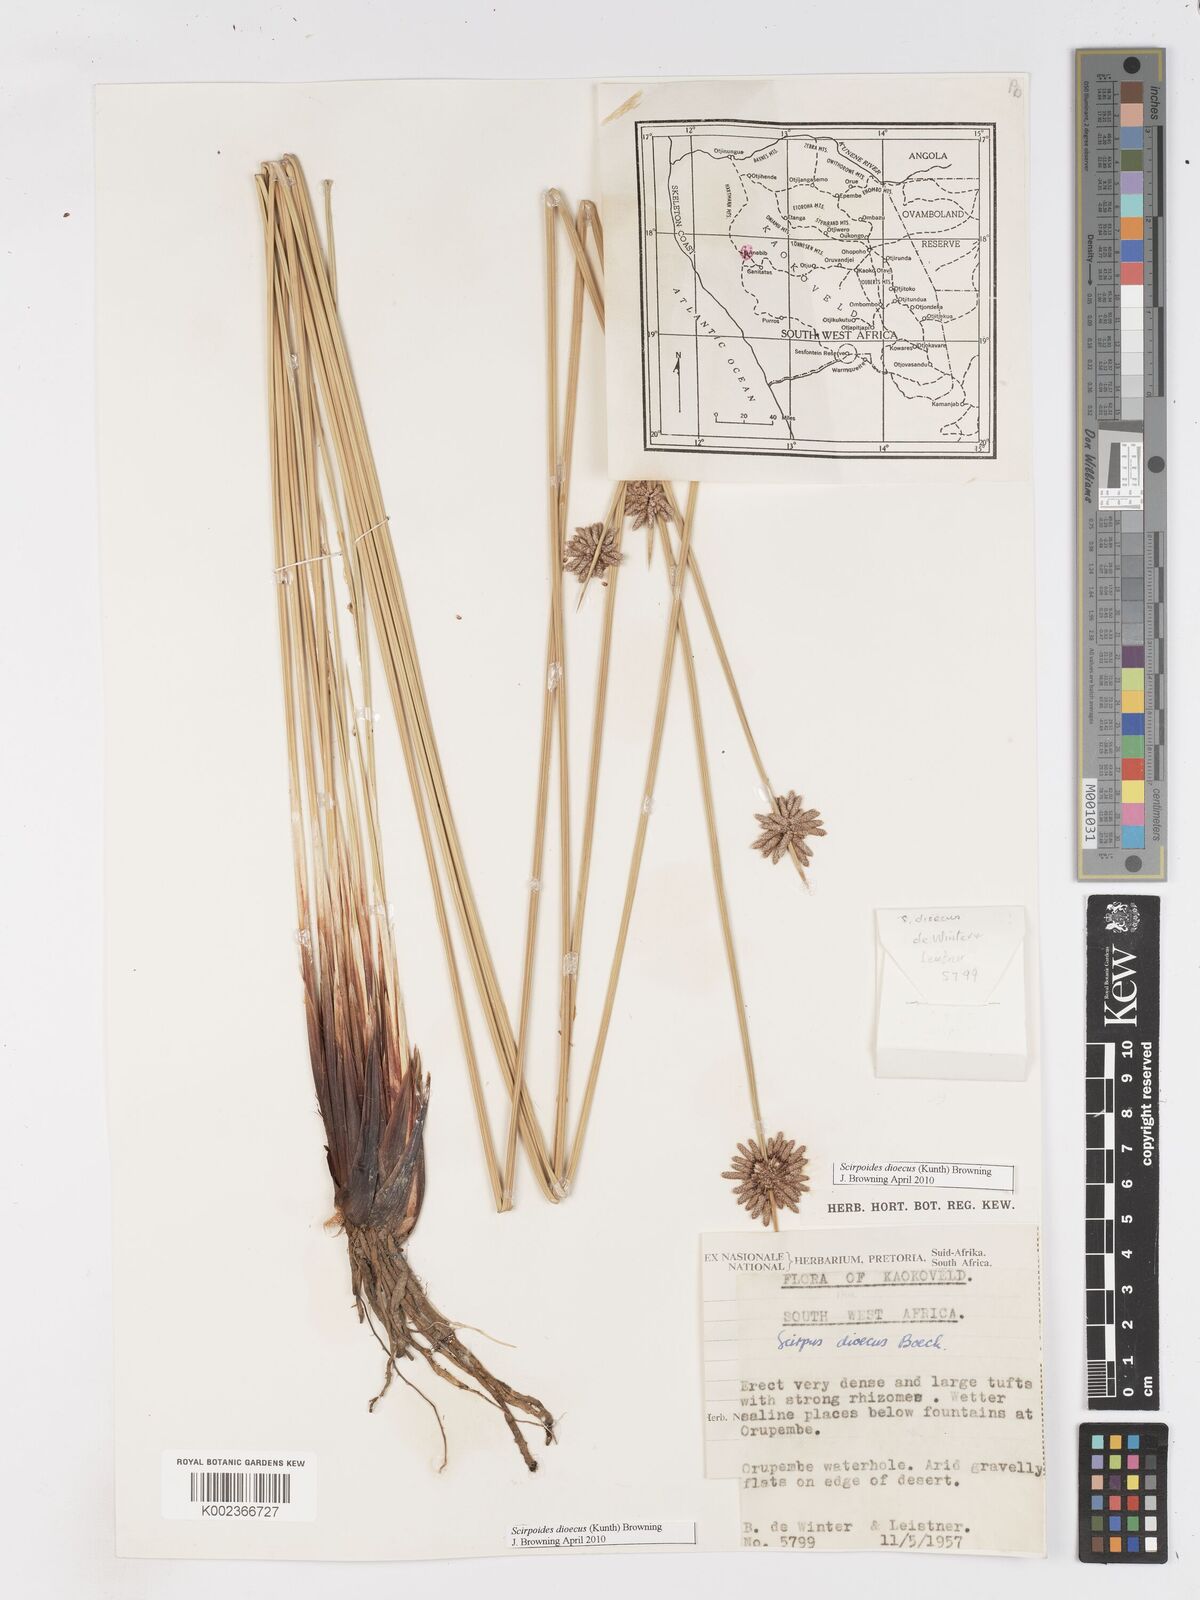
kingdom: Plantae
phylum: Tracheophyta
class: Liliopsida
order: Poales
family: Cyperaceae
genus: Scirpoides
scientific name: Scirpoides
